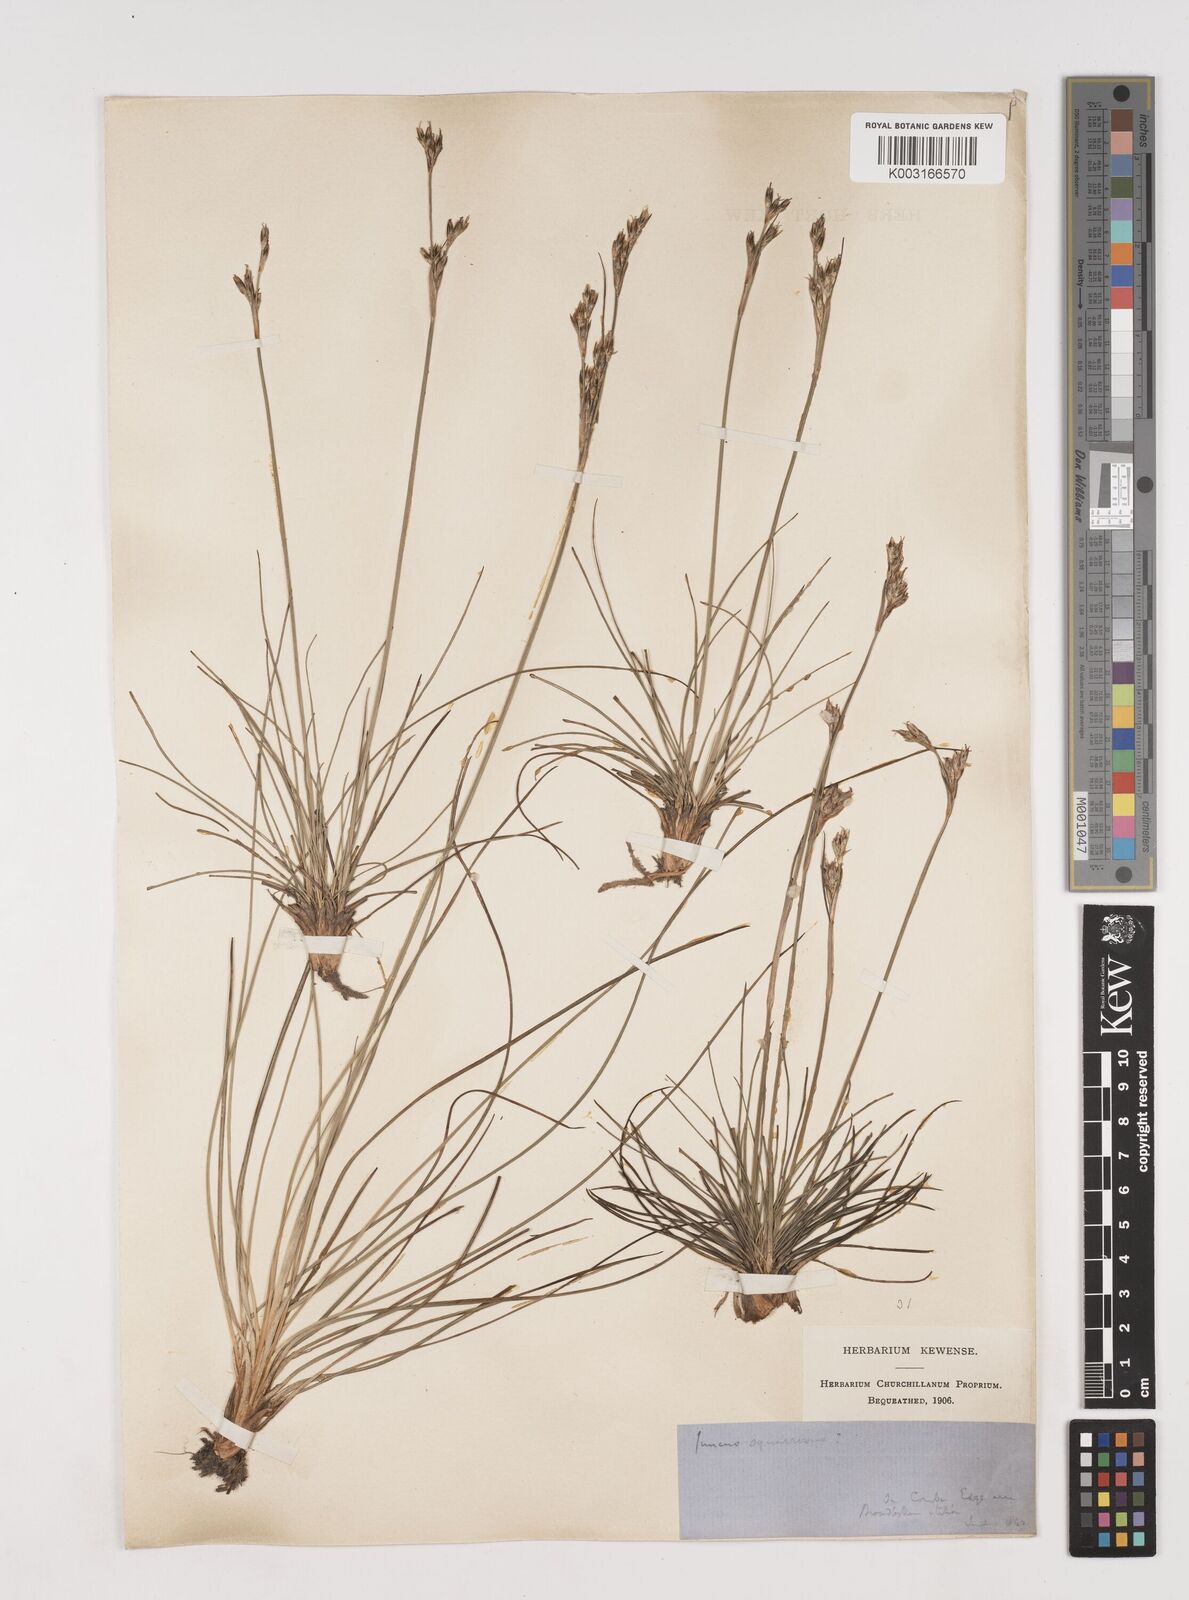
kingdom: Plantae
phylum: Tracheophyta
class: Liliopsida
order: Poales
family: Juncaceae
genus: Juncus
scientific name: Juncus squarrosus
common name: Heath rush
